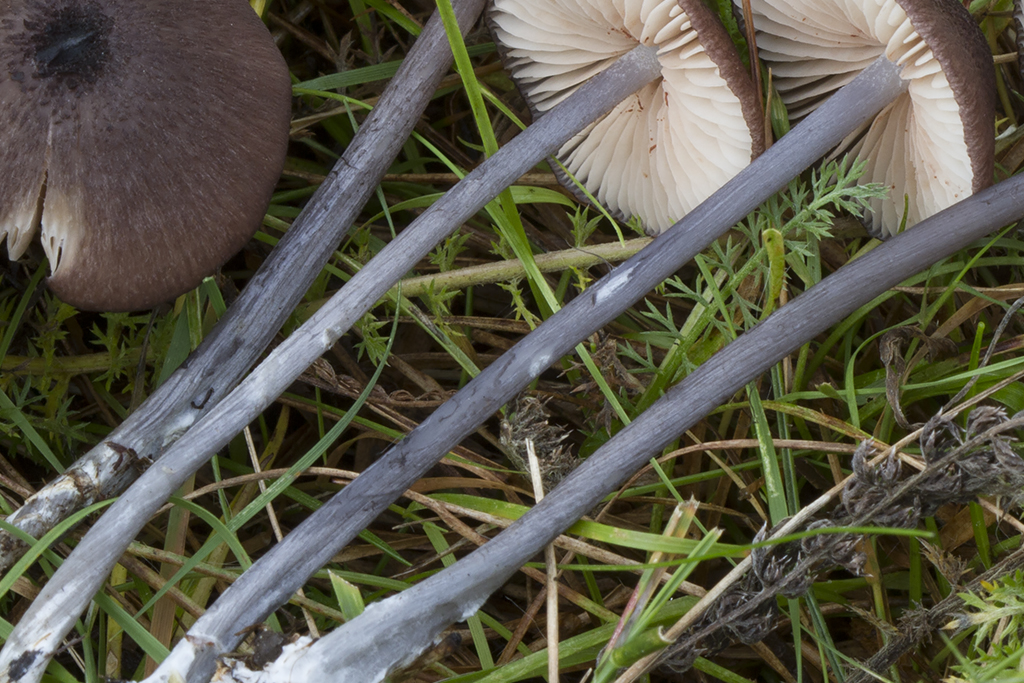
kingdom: Fungi
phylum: Basidiomycota
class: Agaricomycetes
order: Agaricales
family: Entolomataceae
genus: Entoloma
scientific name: Entoloma viiduense
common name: purpurbrun rødblad
